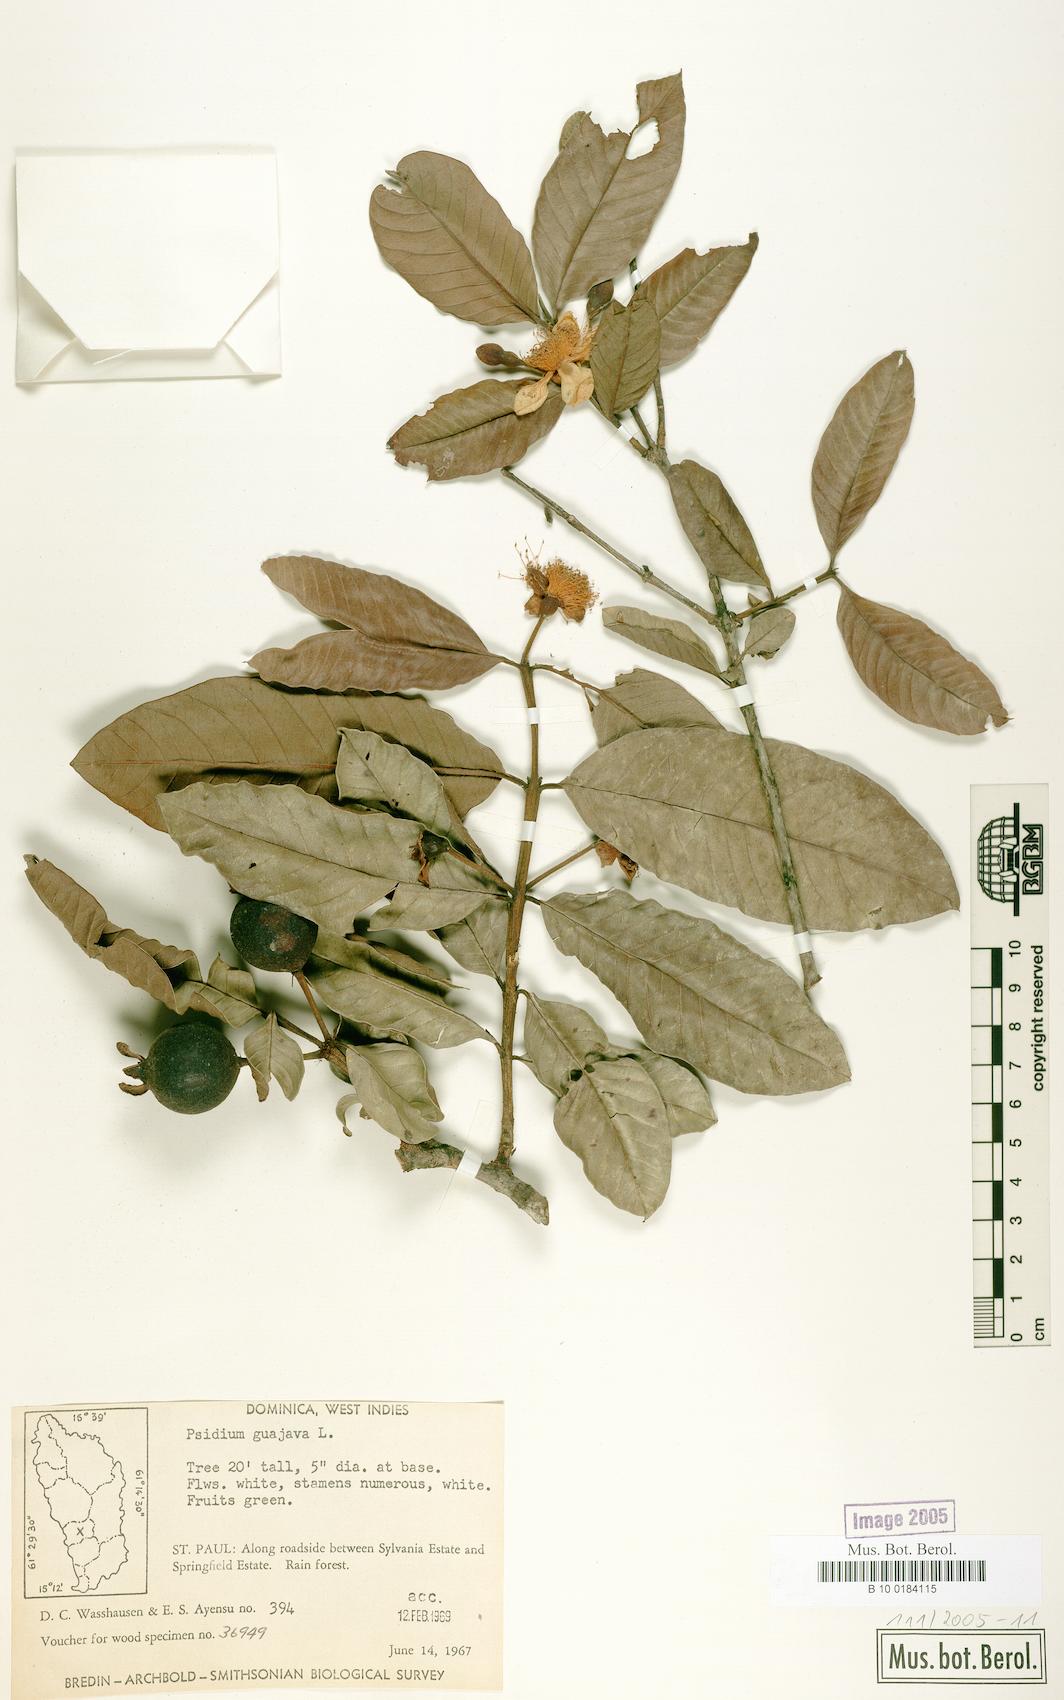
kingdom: Plantae
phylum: Tracheophyta
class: Magnoliopsida
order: Myrtales
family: Myrtaceae
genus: Psidium
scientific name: Psidium guajava
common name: Guava
